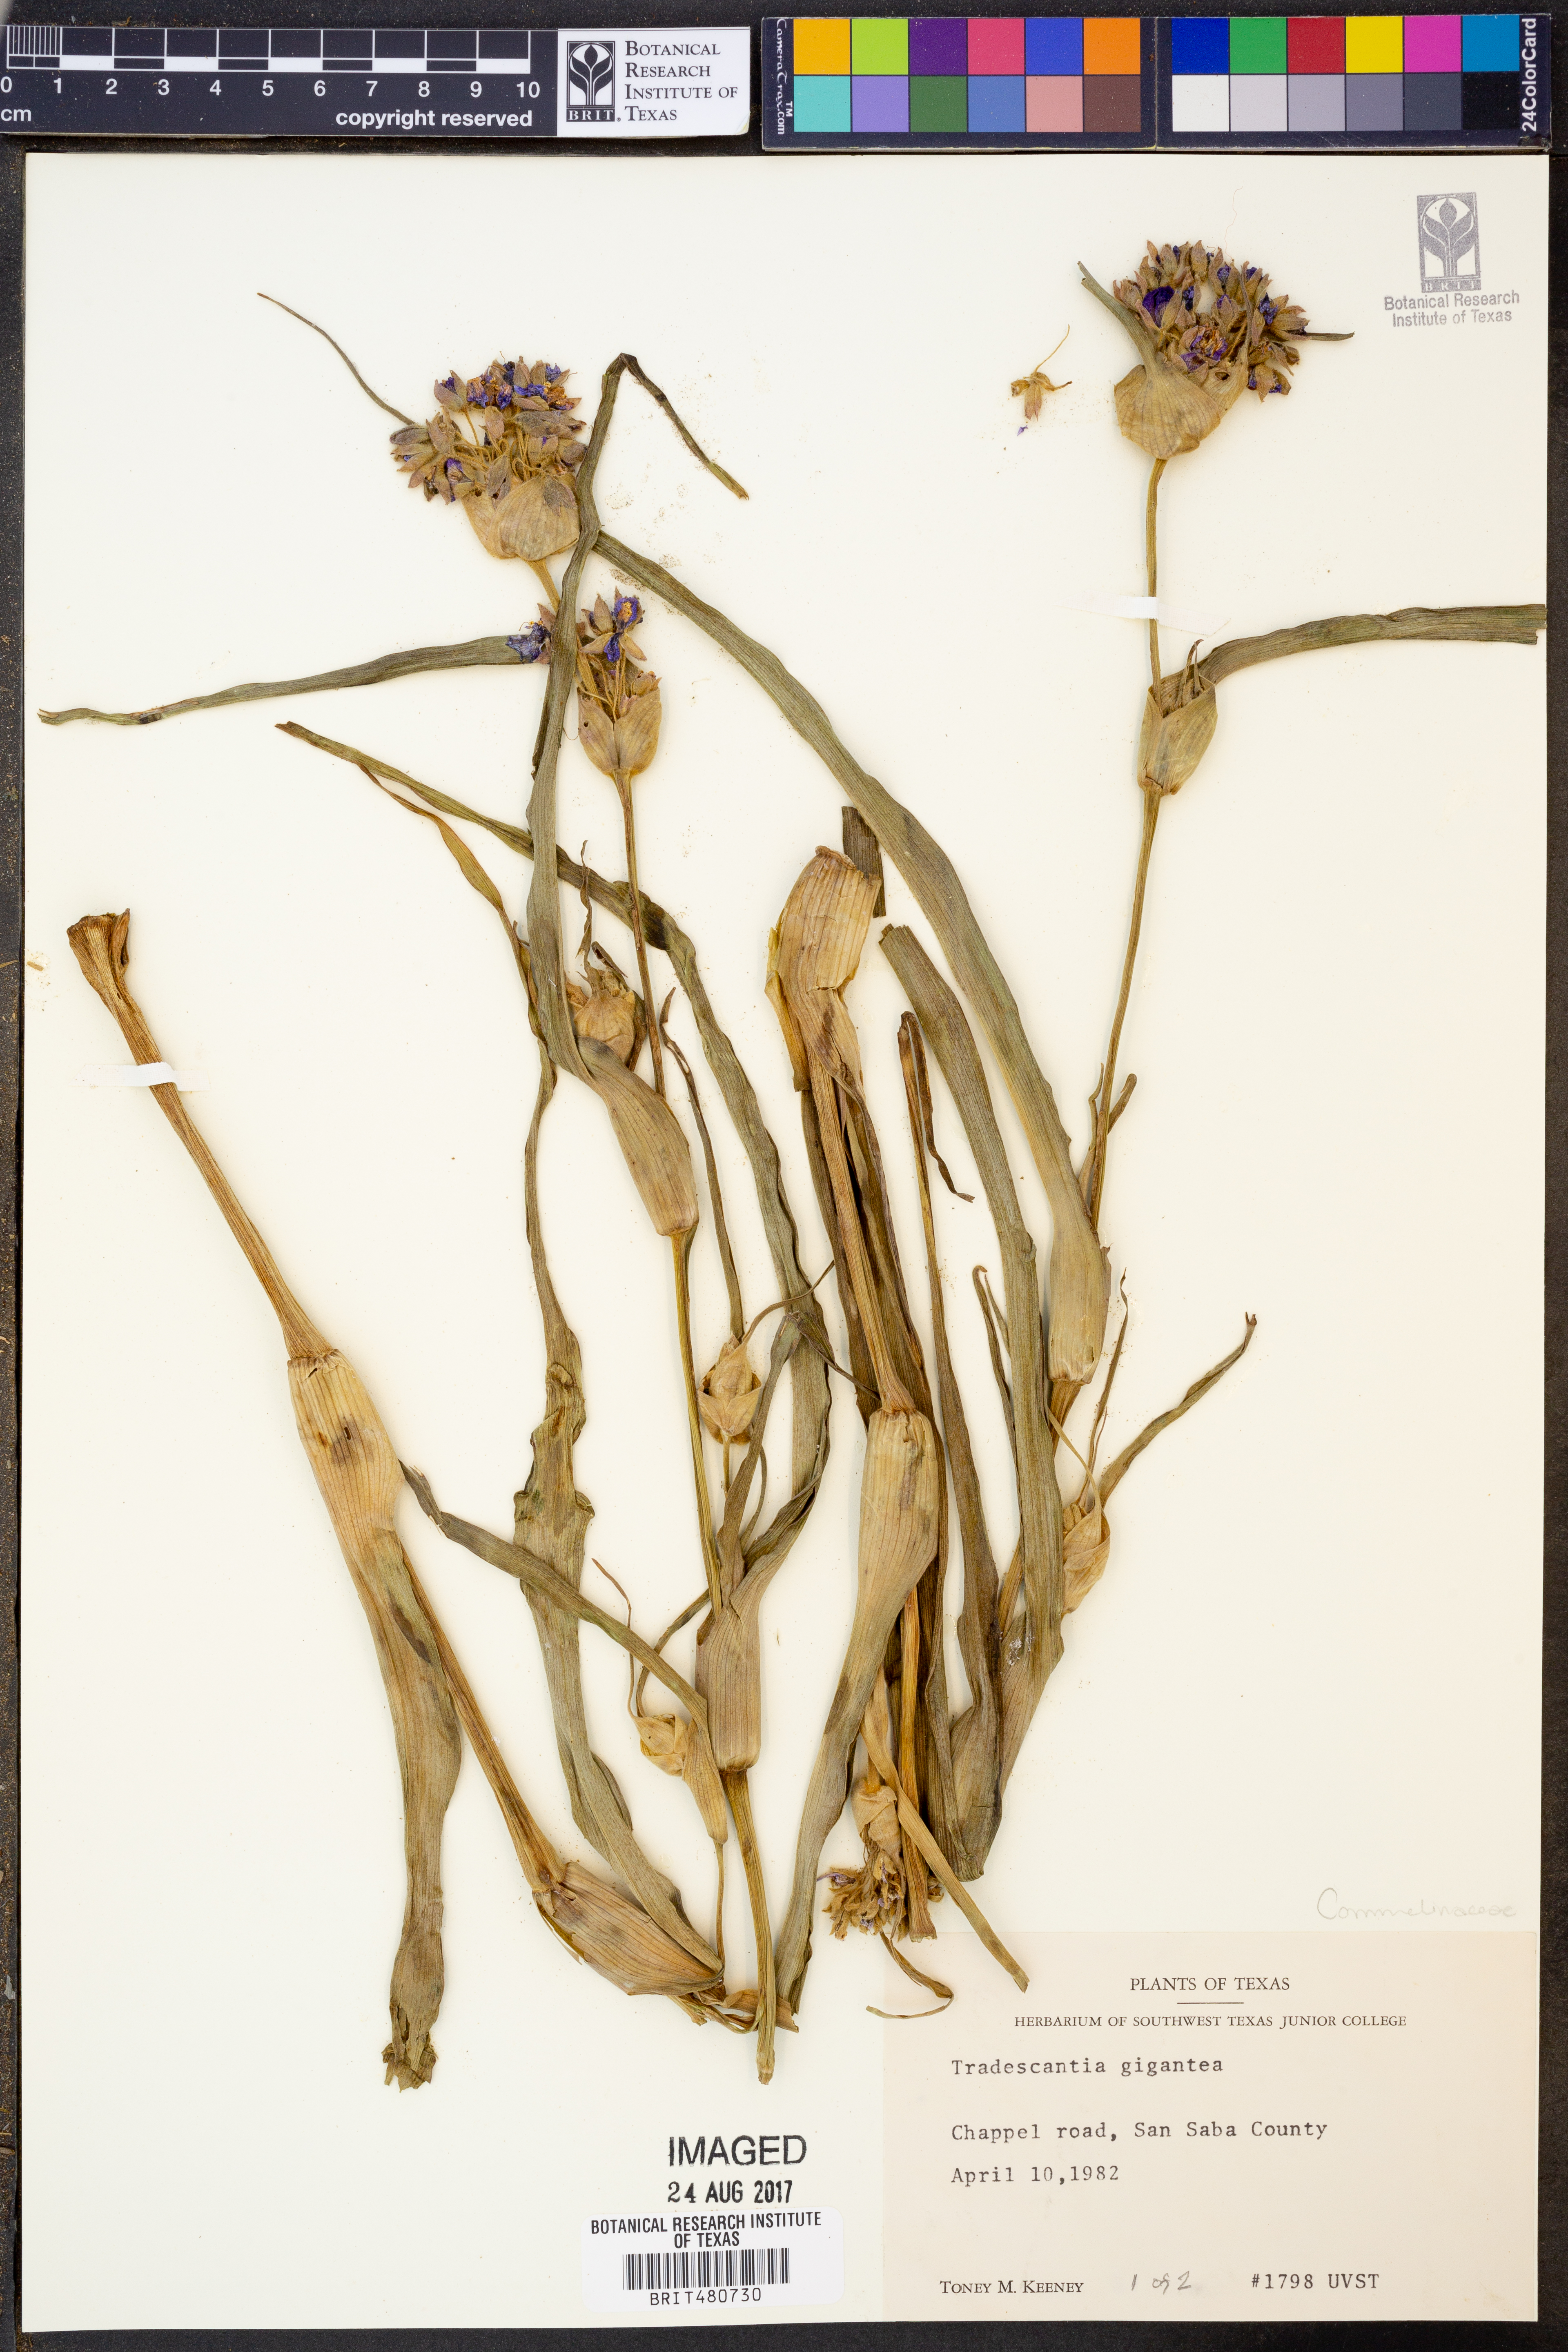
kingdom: Plantae
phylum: Tracheophyta
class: Liliopsida
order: Commelinales
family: Commelinaceae
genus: Tradescantia
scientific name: Tradescantia gigantea
